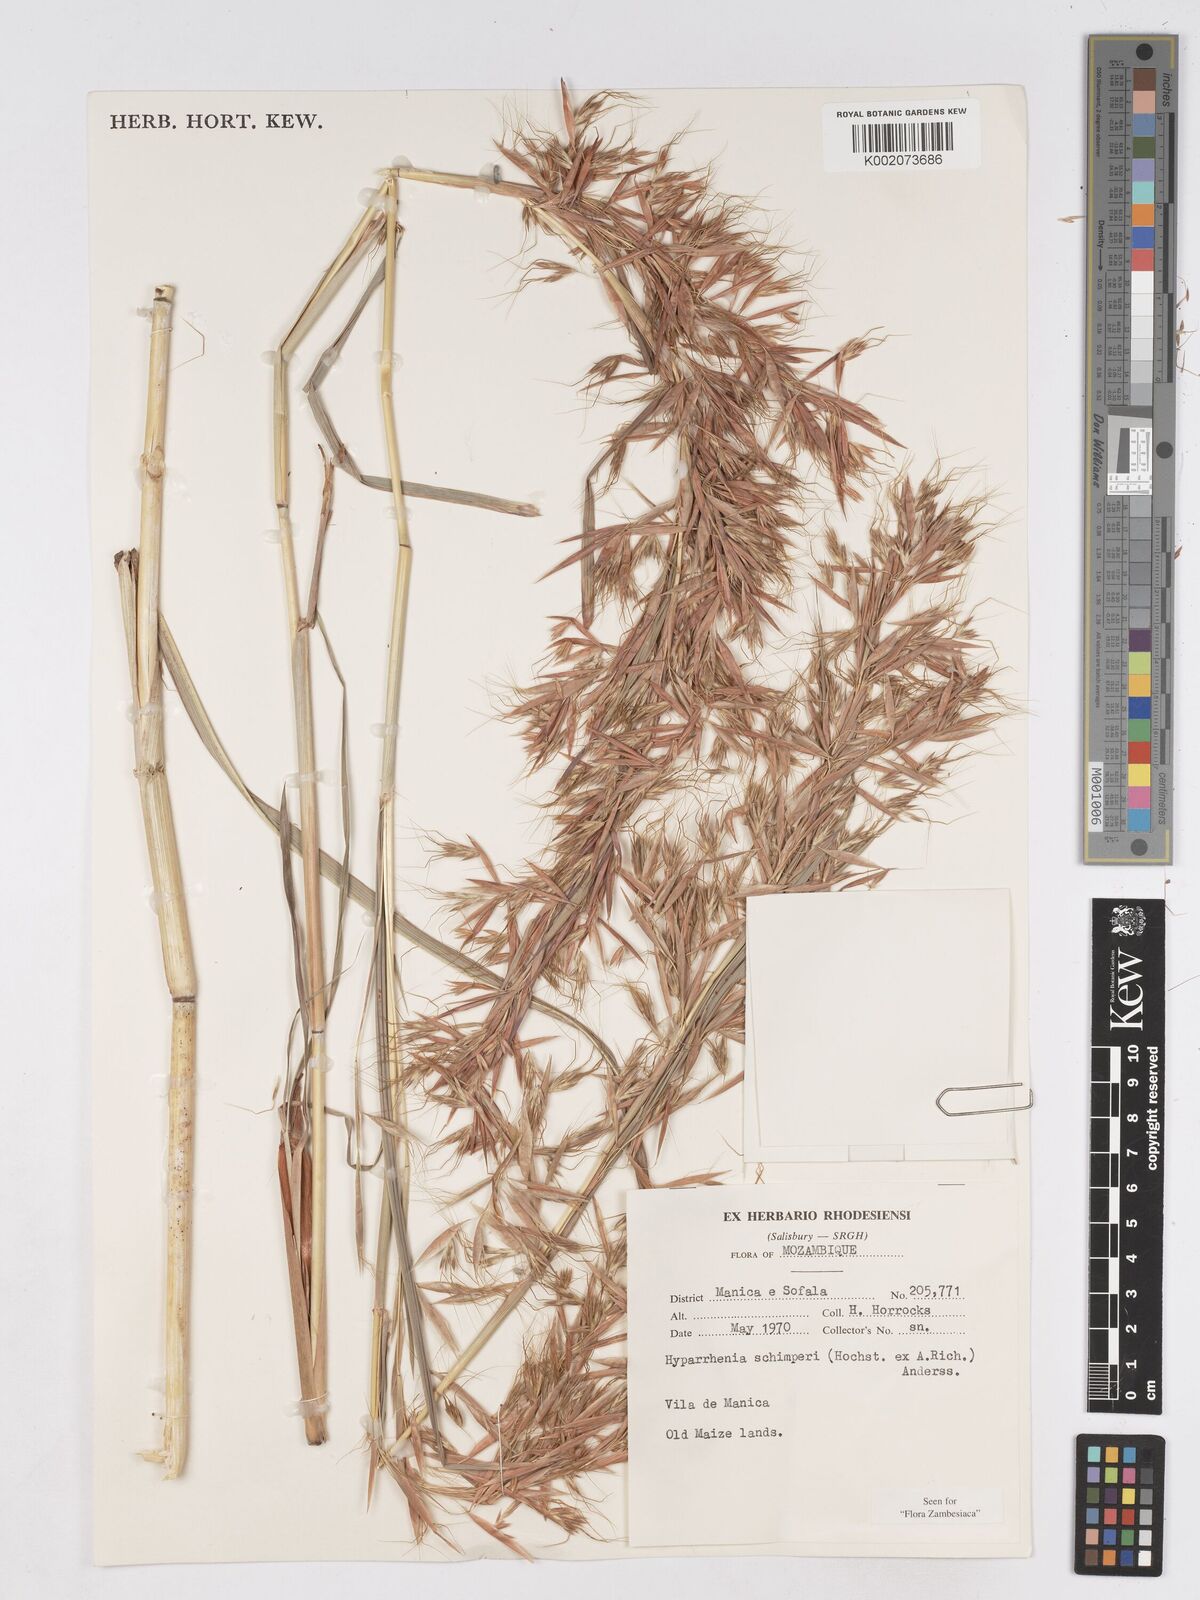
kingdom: Plantae
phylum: Tracheophyta
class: Liliopsida
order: Poales
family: Poaceae
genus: Hyparrhenia
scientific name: Hyparrhenia schimperi
